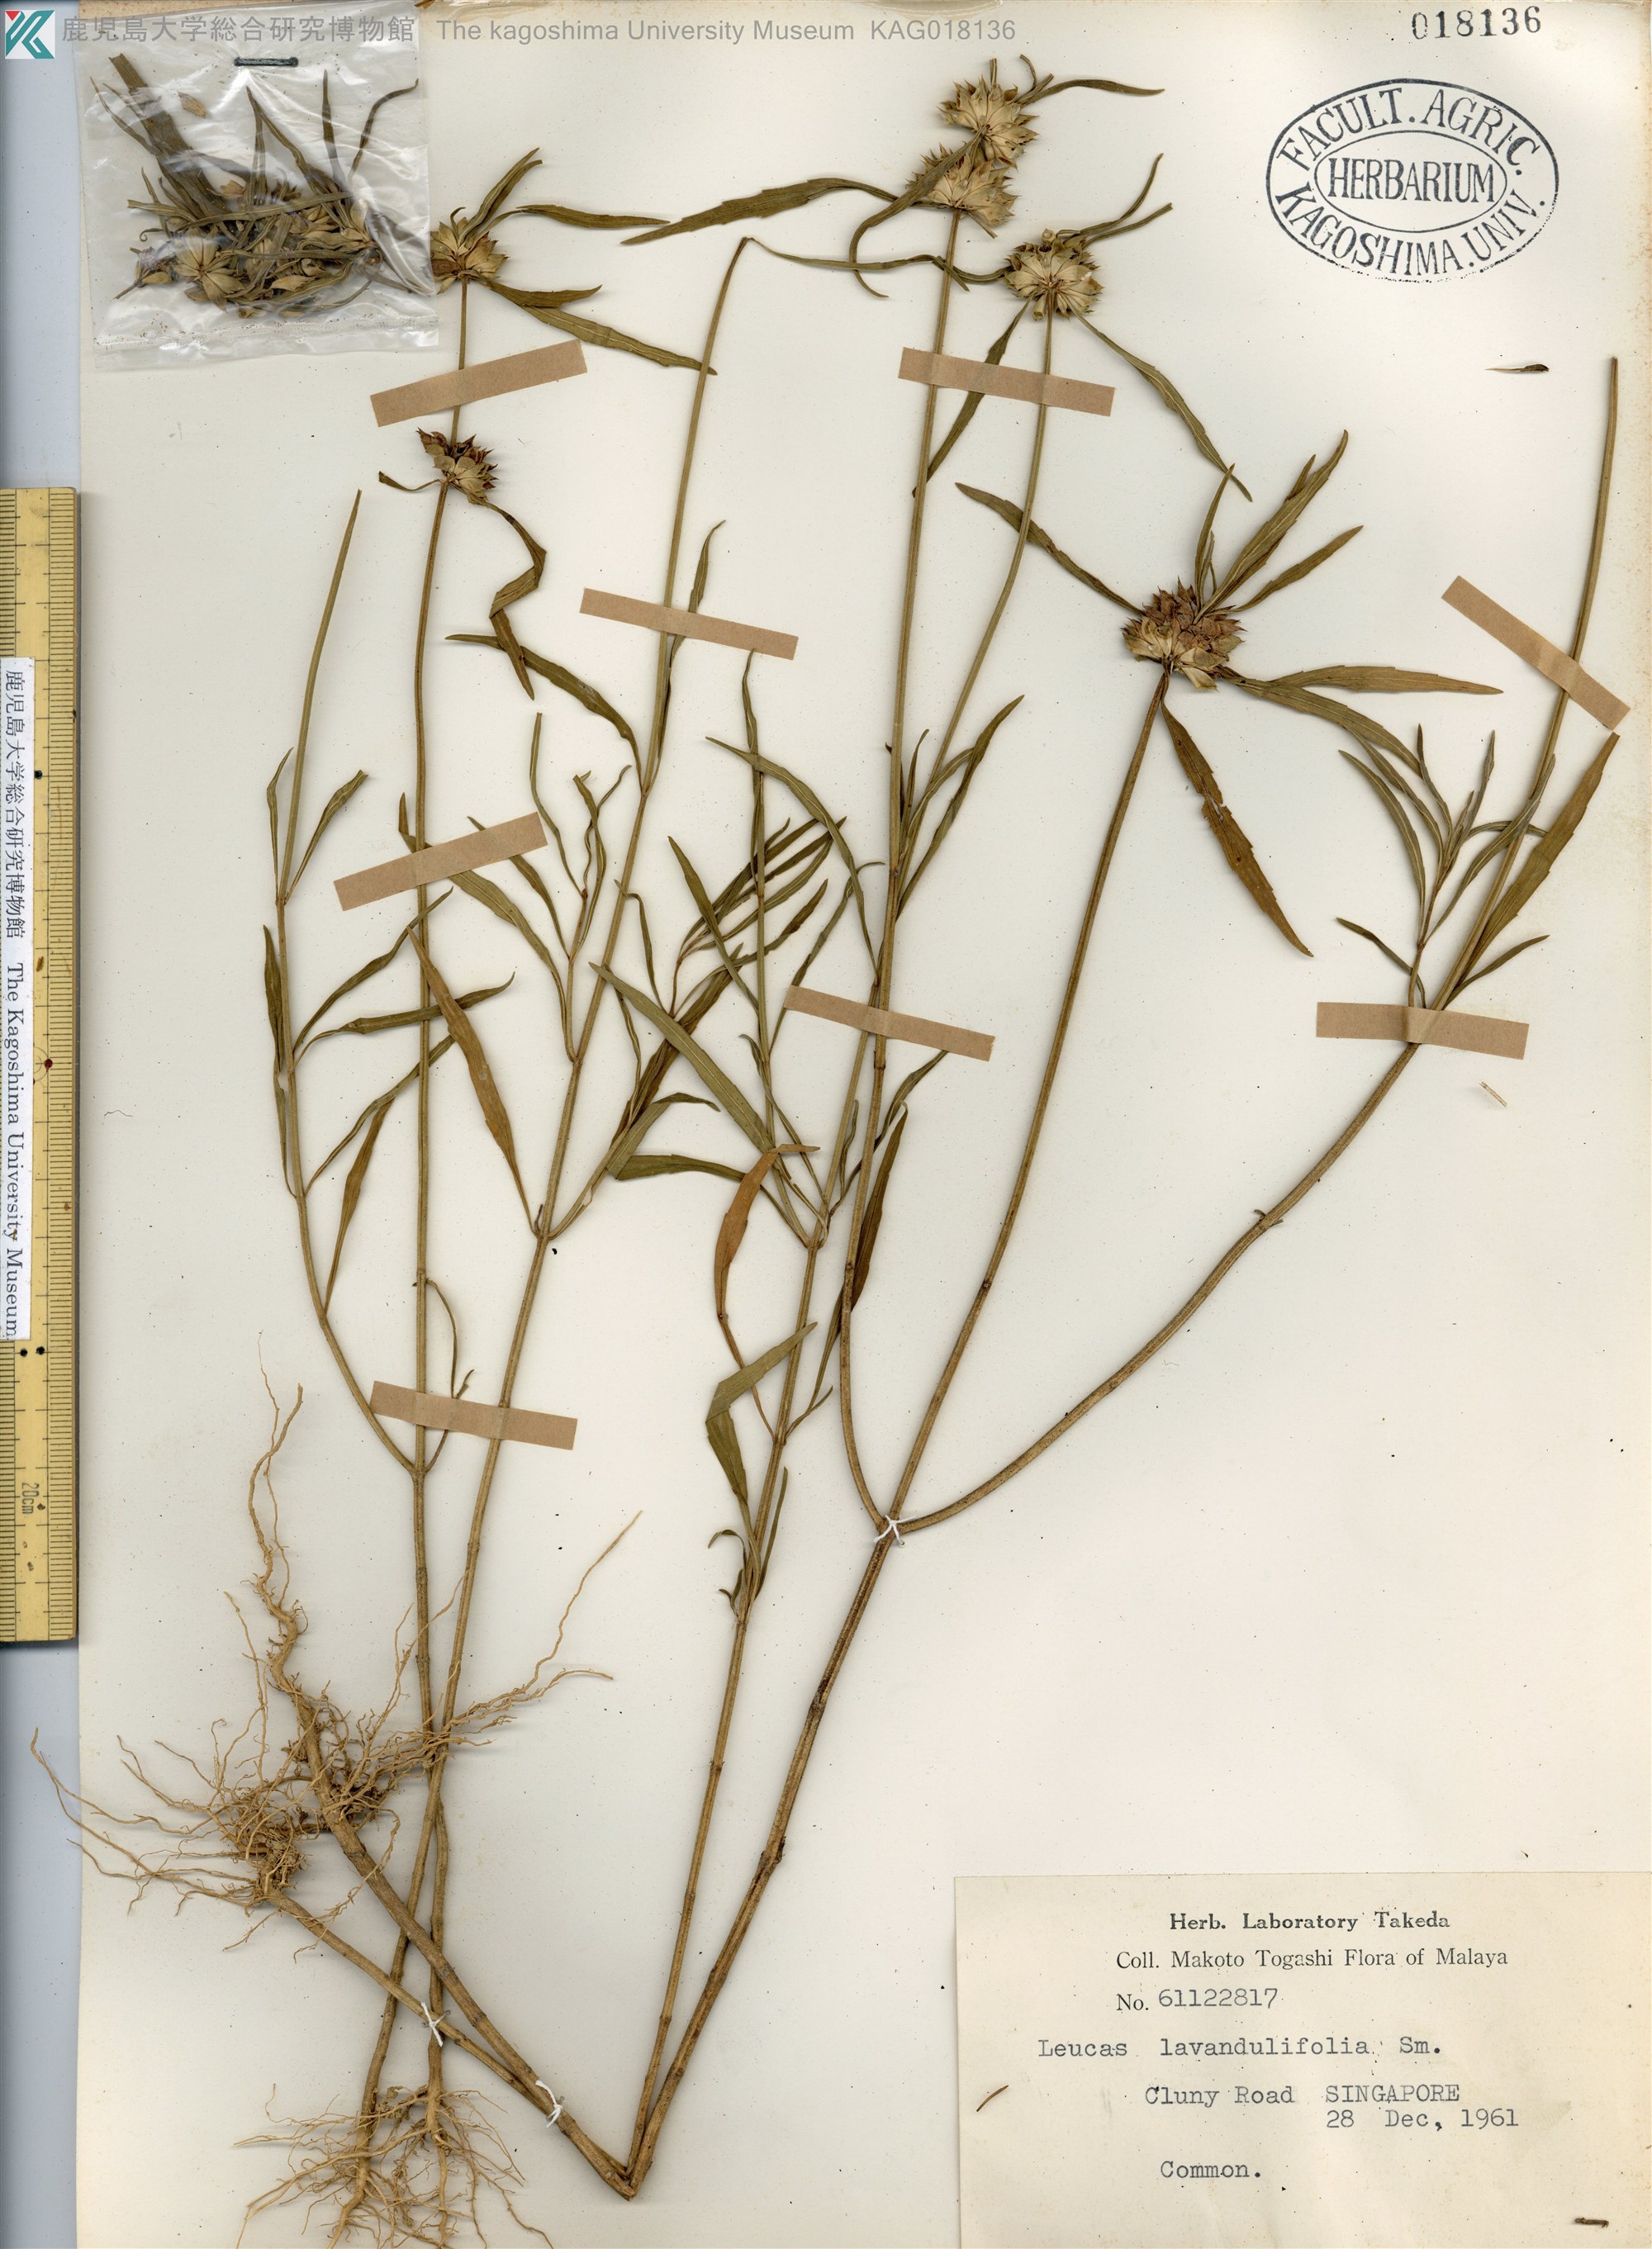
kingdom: Plantae
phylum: Tracheophyta
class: Magnoliopsida
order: Lamiales
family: Lamiaceae
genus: Leucas
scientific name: Leucas lavandulaefolia
